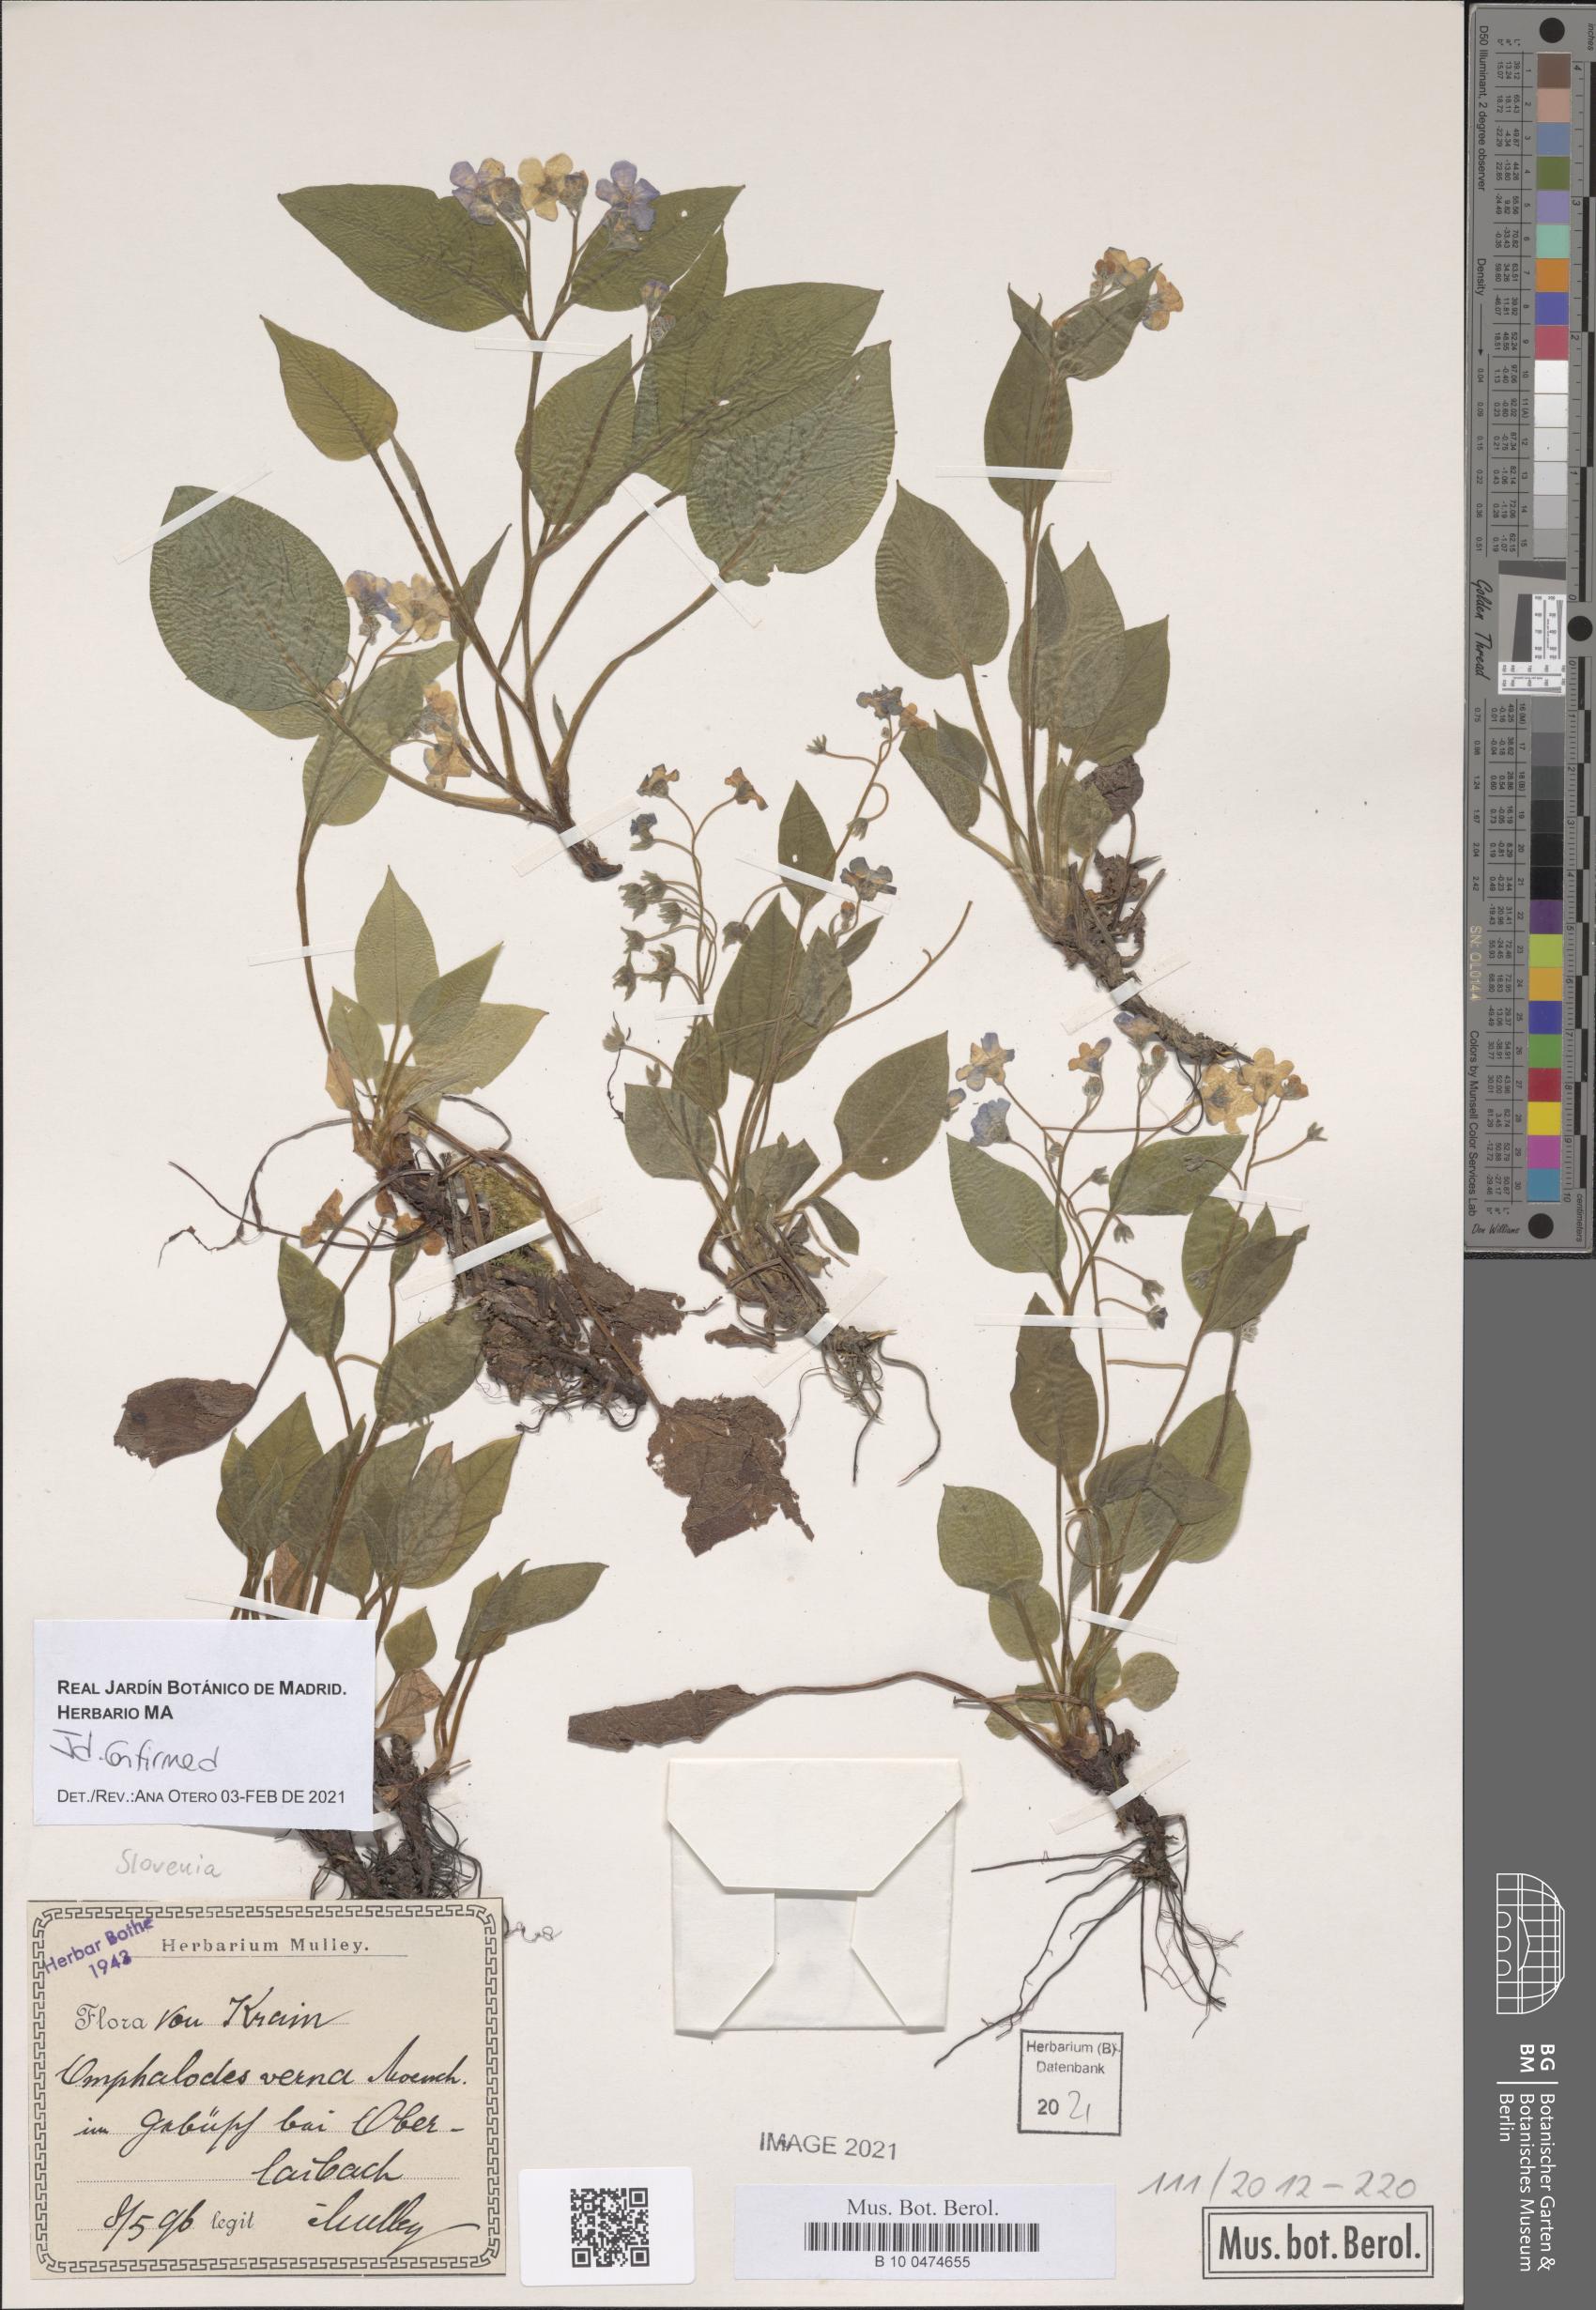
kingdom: Plantae
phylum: Tracheophyta
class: Magnoliopsida
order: Boraginales
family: Boraginaceae
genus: Omphalodes
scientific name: Omphalodes verna
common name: Blue-eyed-mary
